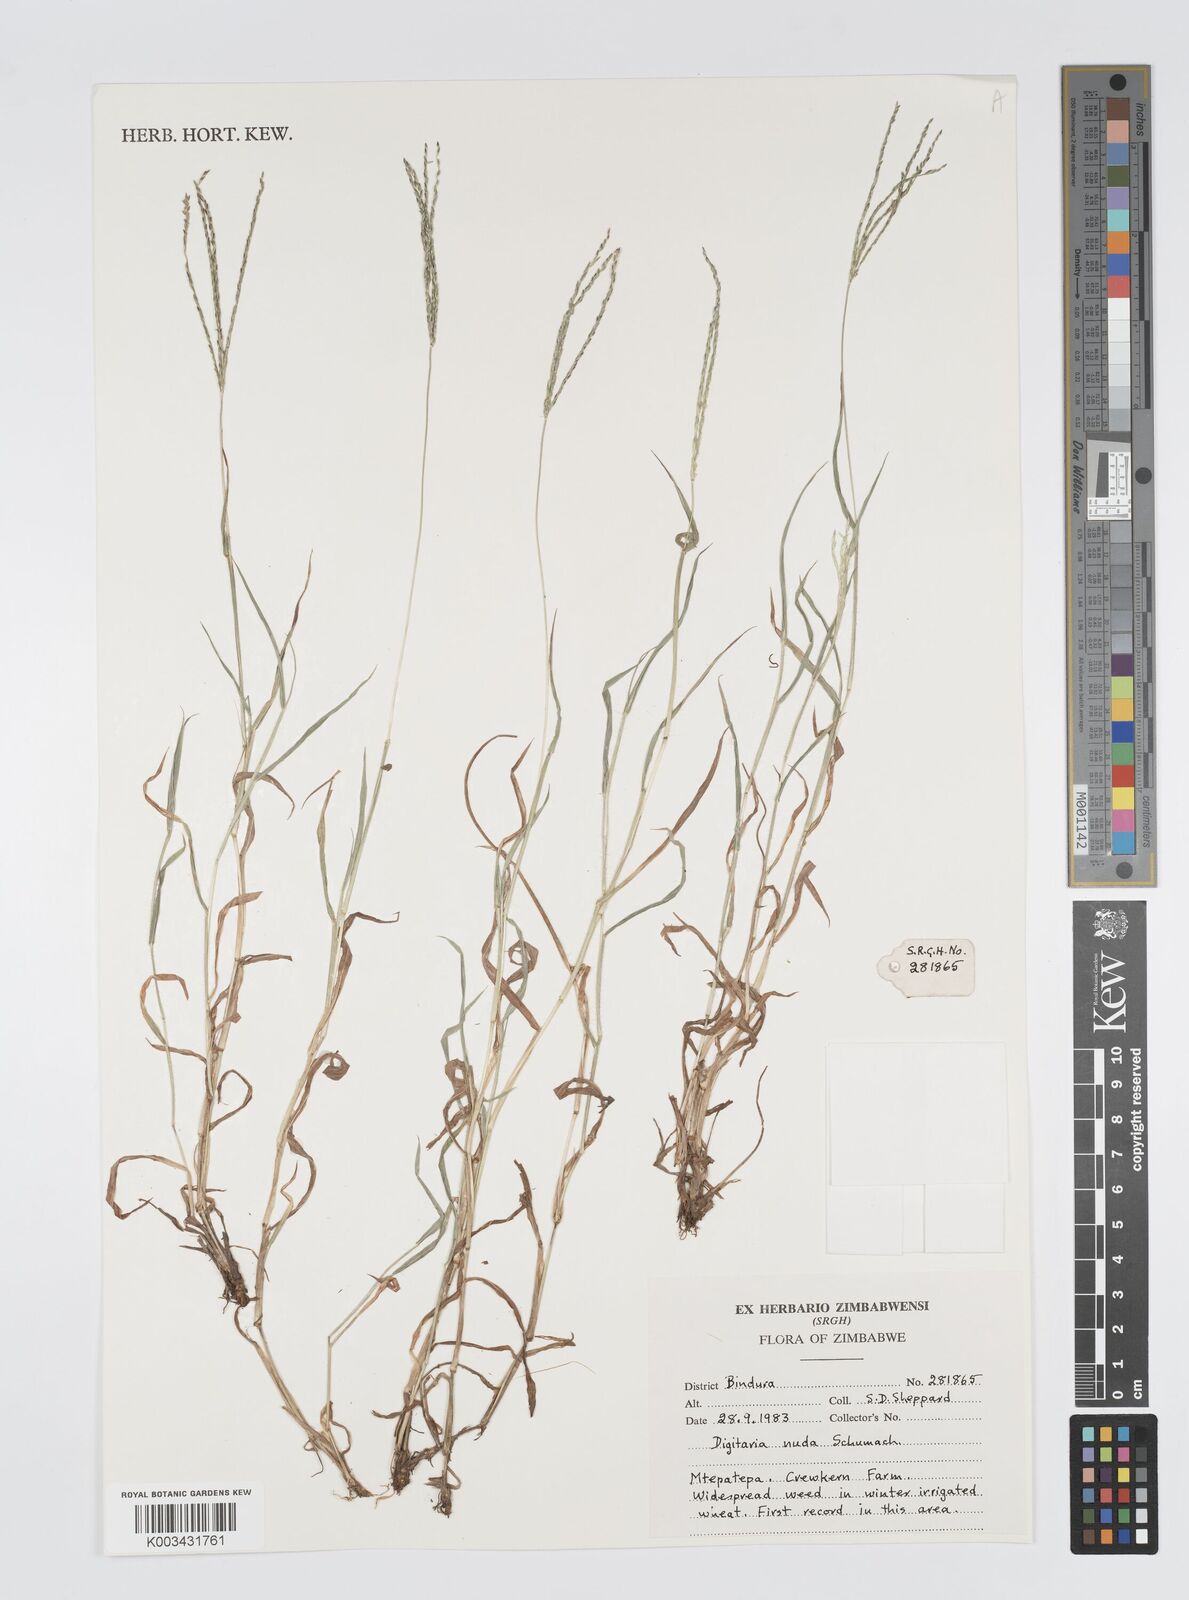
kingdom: Plantae
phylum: Tracheophyta
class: Liliopsida
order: Poales
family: Poaceae
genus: Digitaria
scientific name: Digitaria nuda
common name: Naked crabgrass
